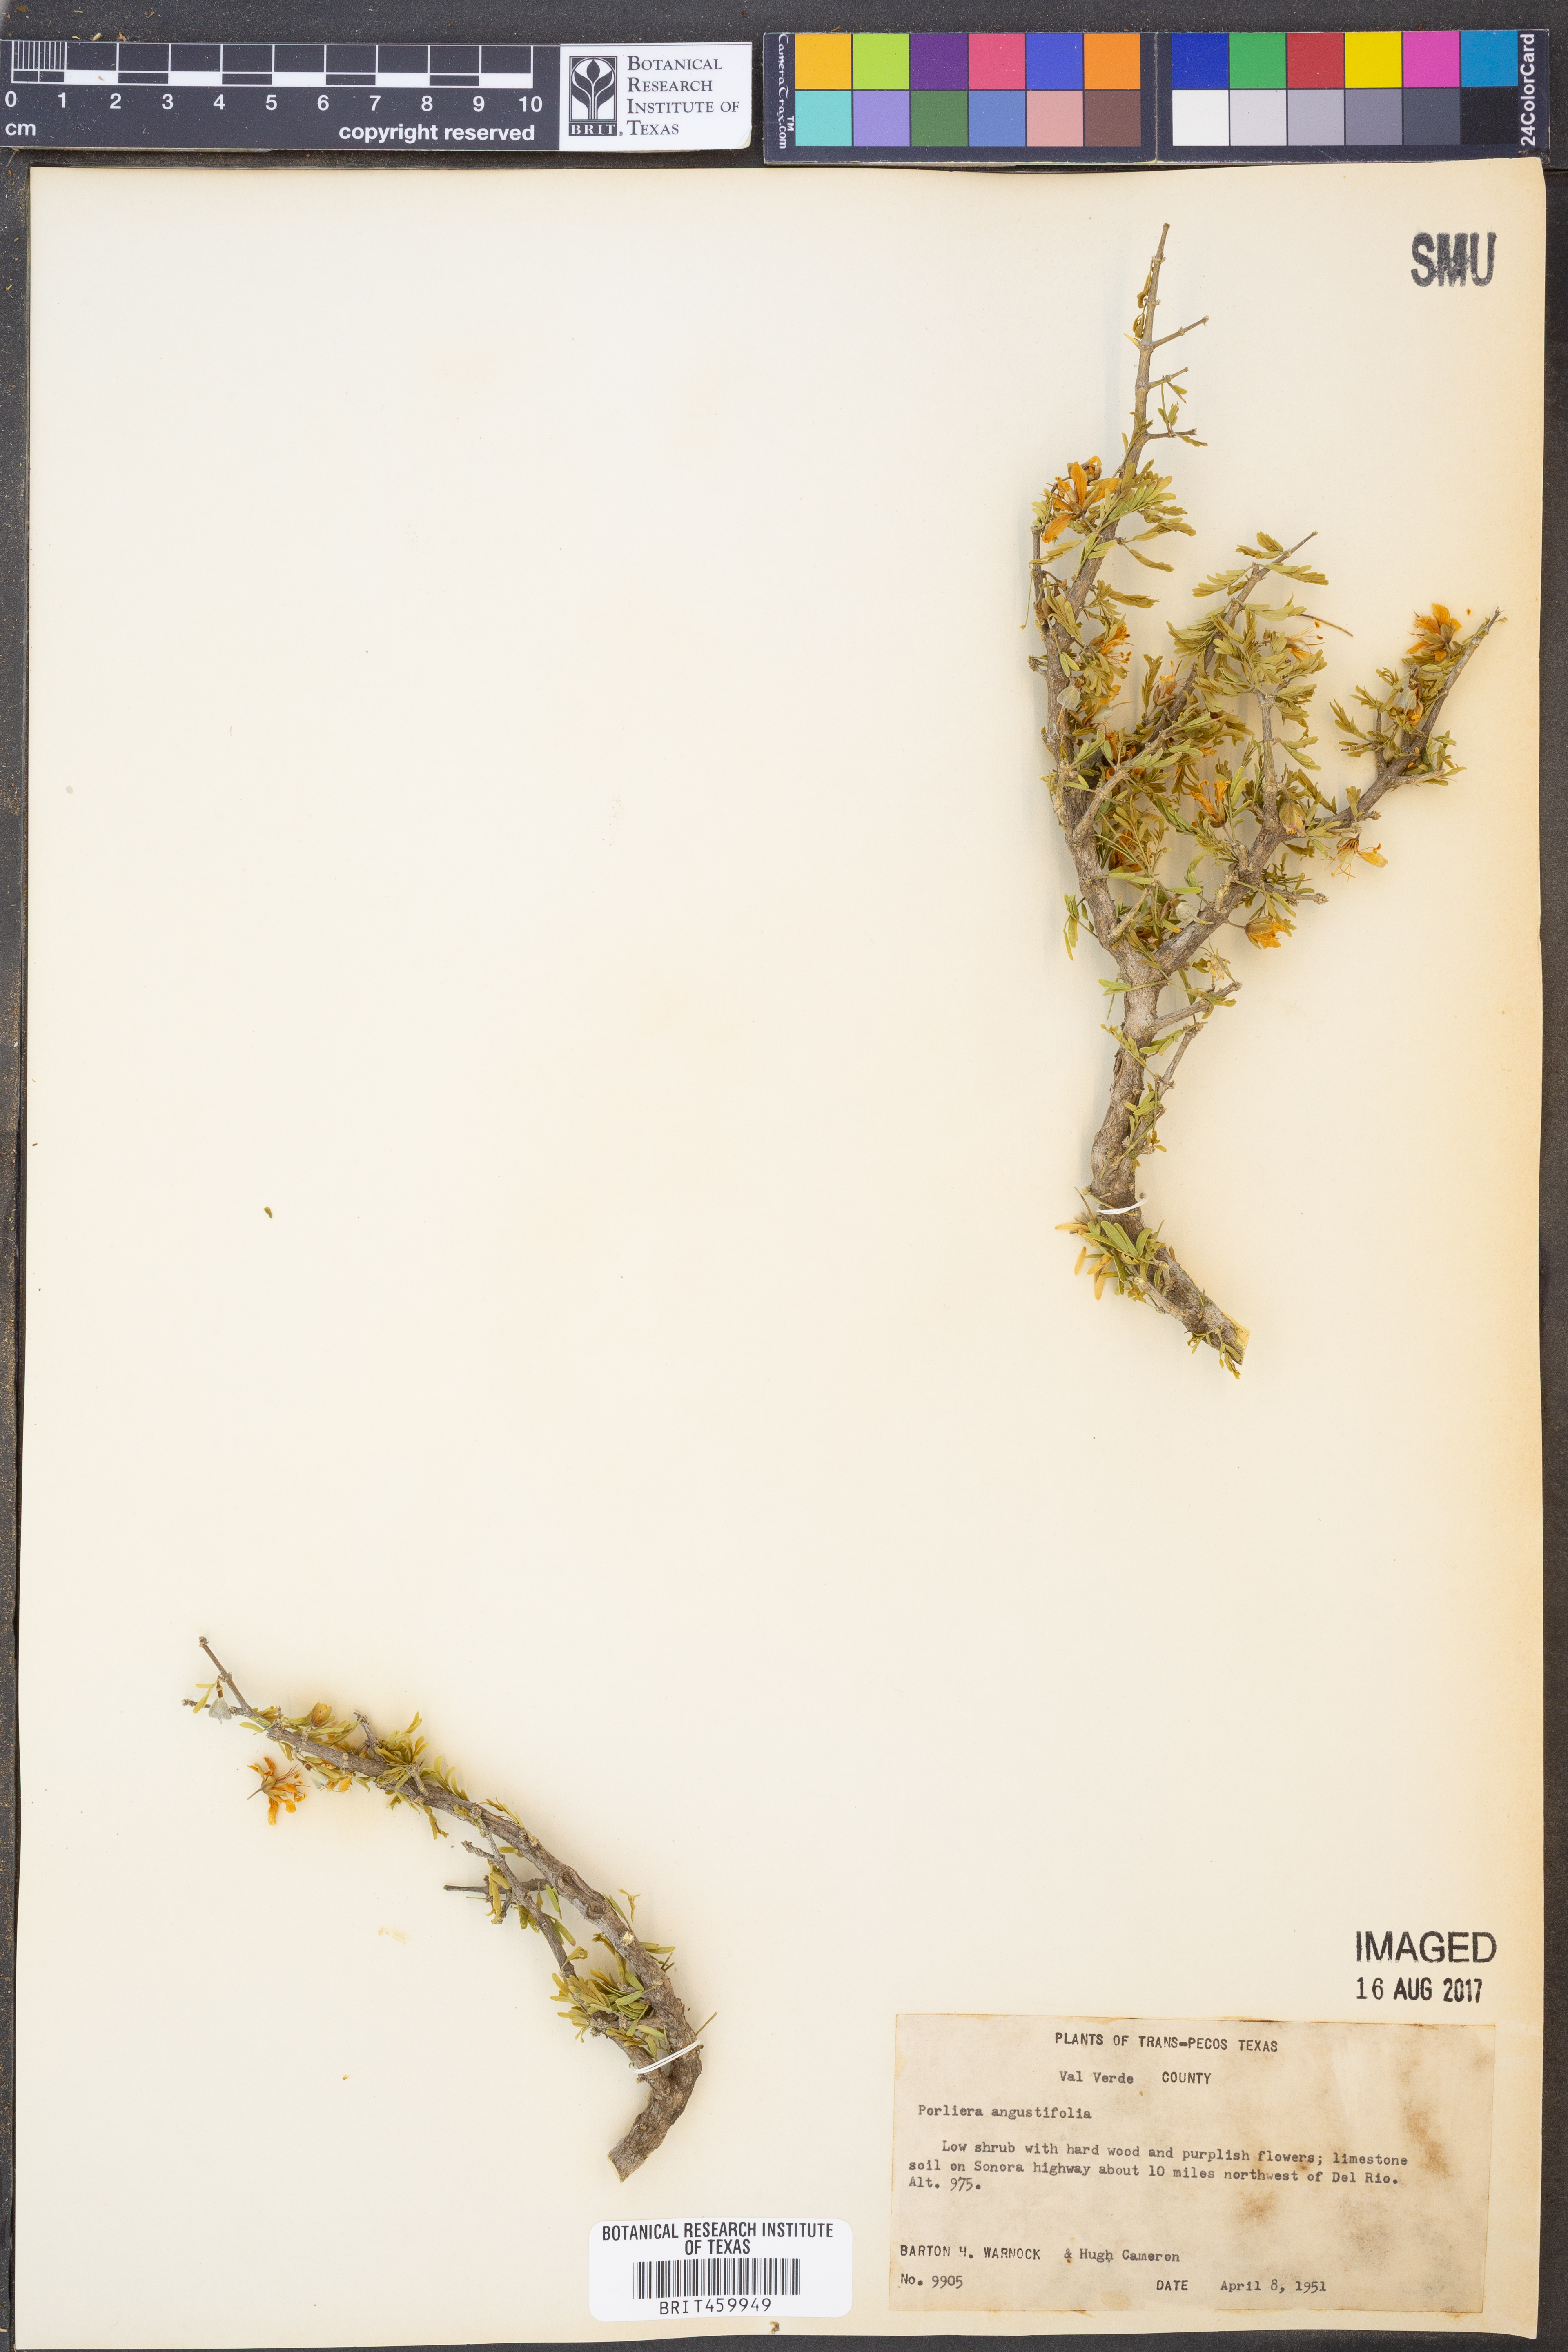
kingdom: Plantae
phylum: Tracheophyta
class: Magnoliopsida
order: Zygophyllales
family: Zygophyllaceae
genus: Porlieria
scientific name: Porlieria angustifolia
